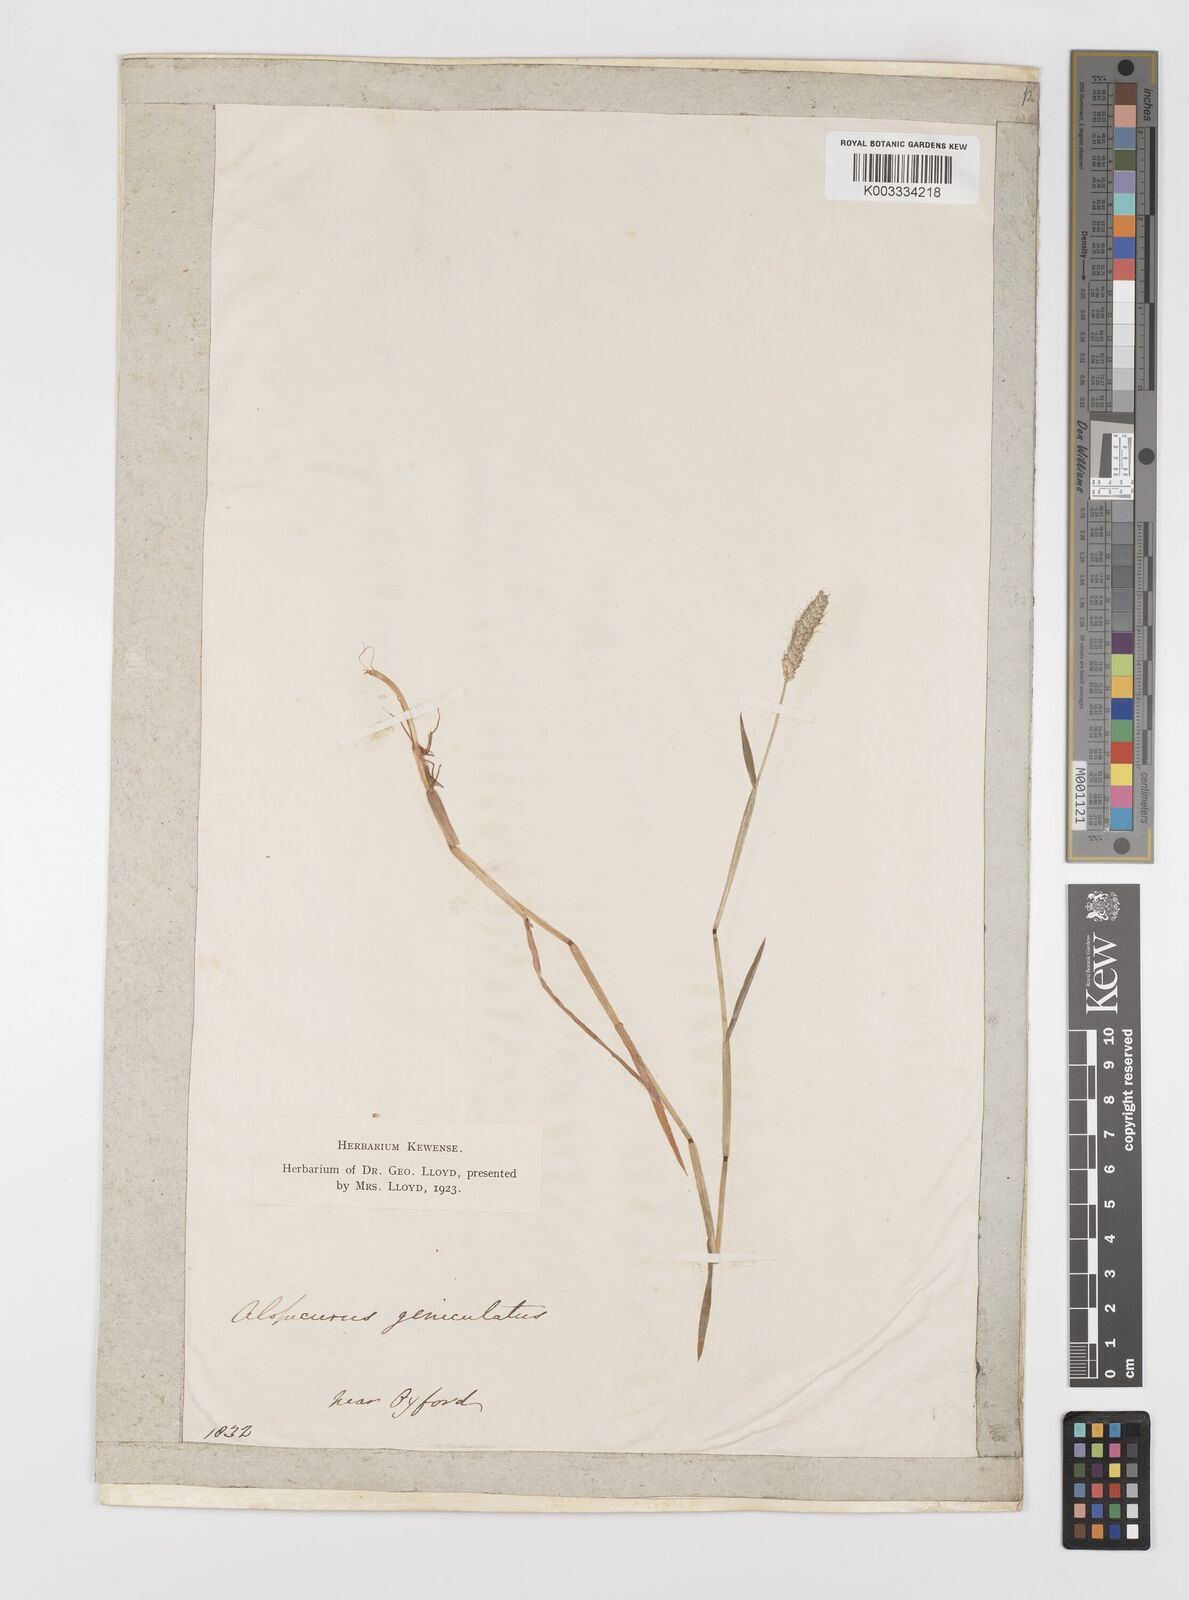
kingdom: Plantae
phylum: Tracheophyta
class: Liliopsida
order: Poales
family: Poaceae
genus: Alopecurus
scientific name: Alopecurus geniculatus
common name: Water foxtail
